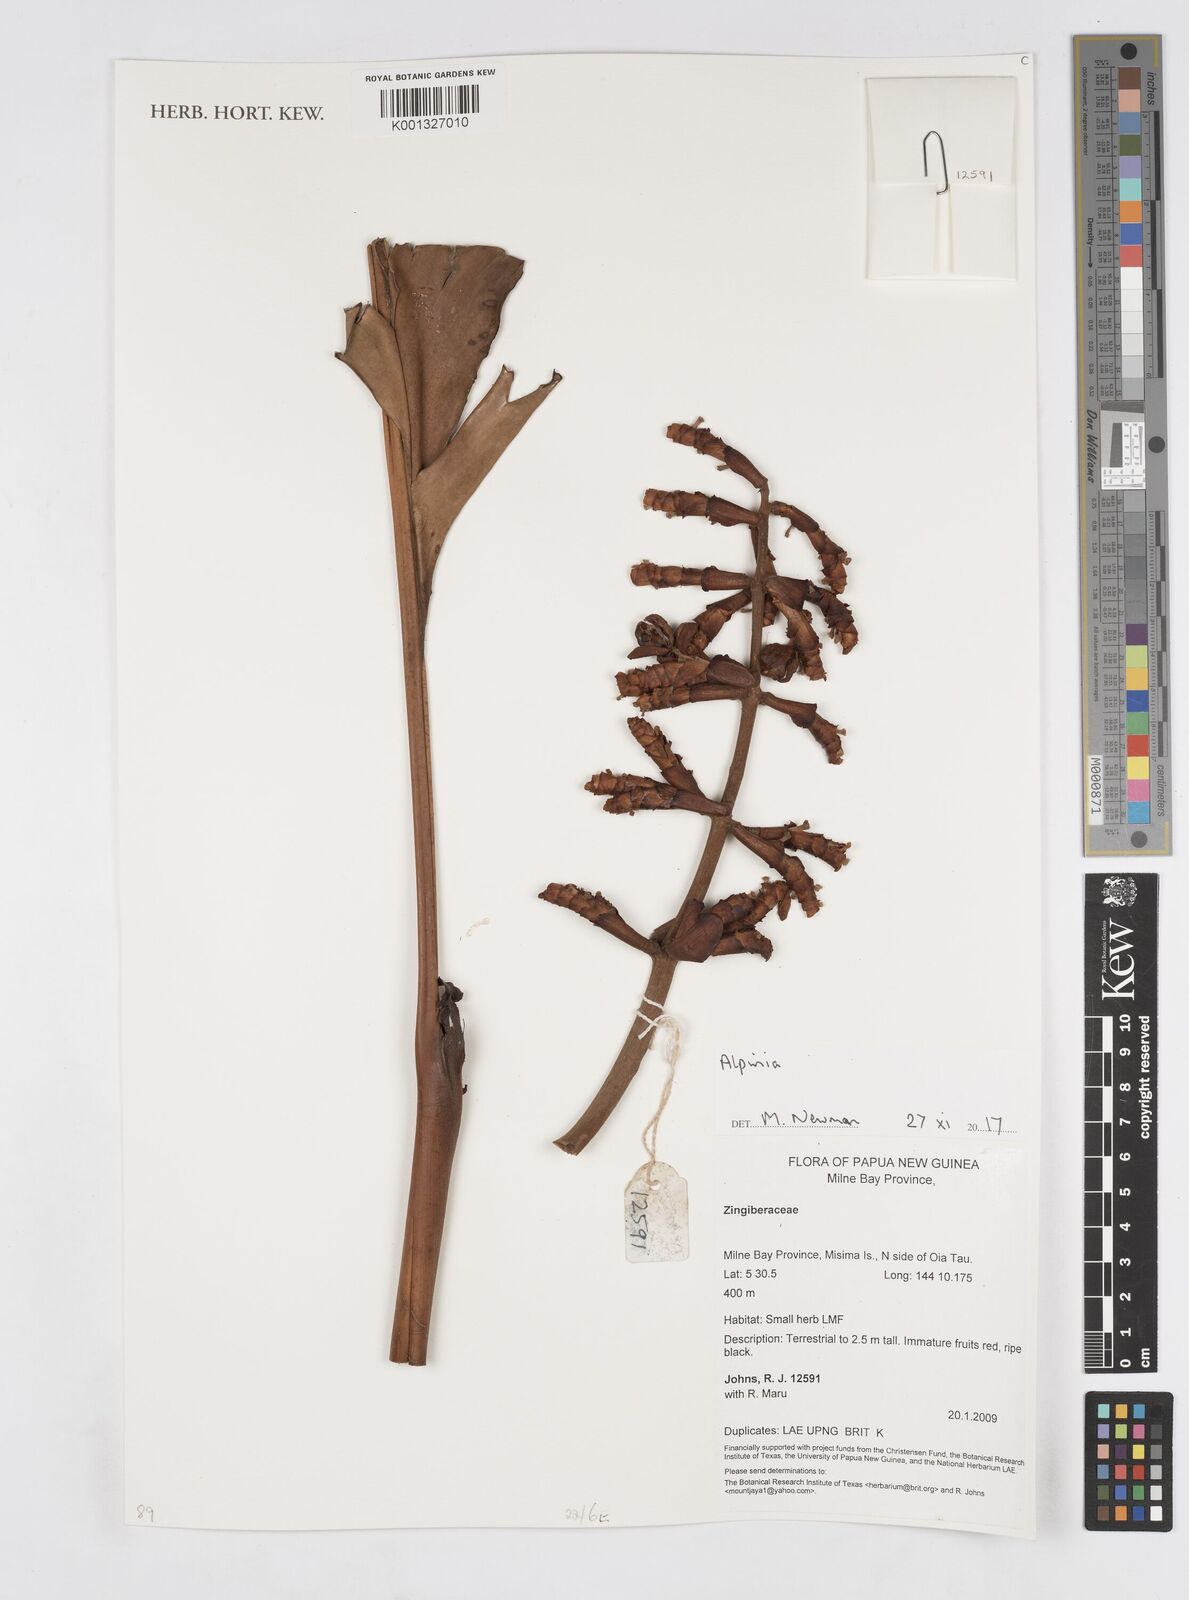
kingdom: Plantae
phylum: Tracheophyta
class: Liliopsida
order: Zingiberales
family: Zingiberaceae
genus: Alpinia
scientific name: Alpinia
